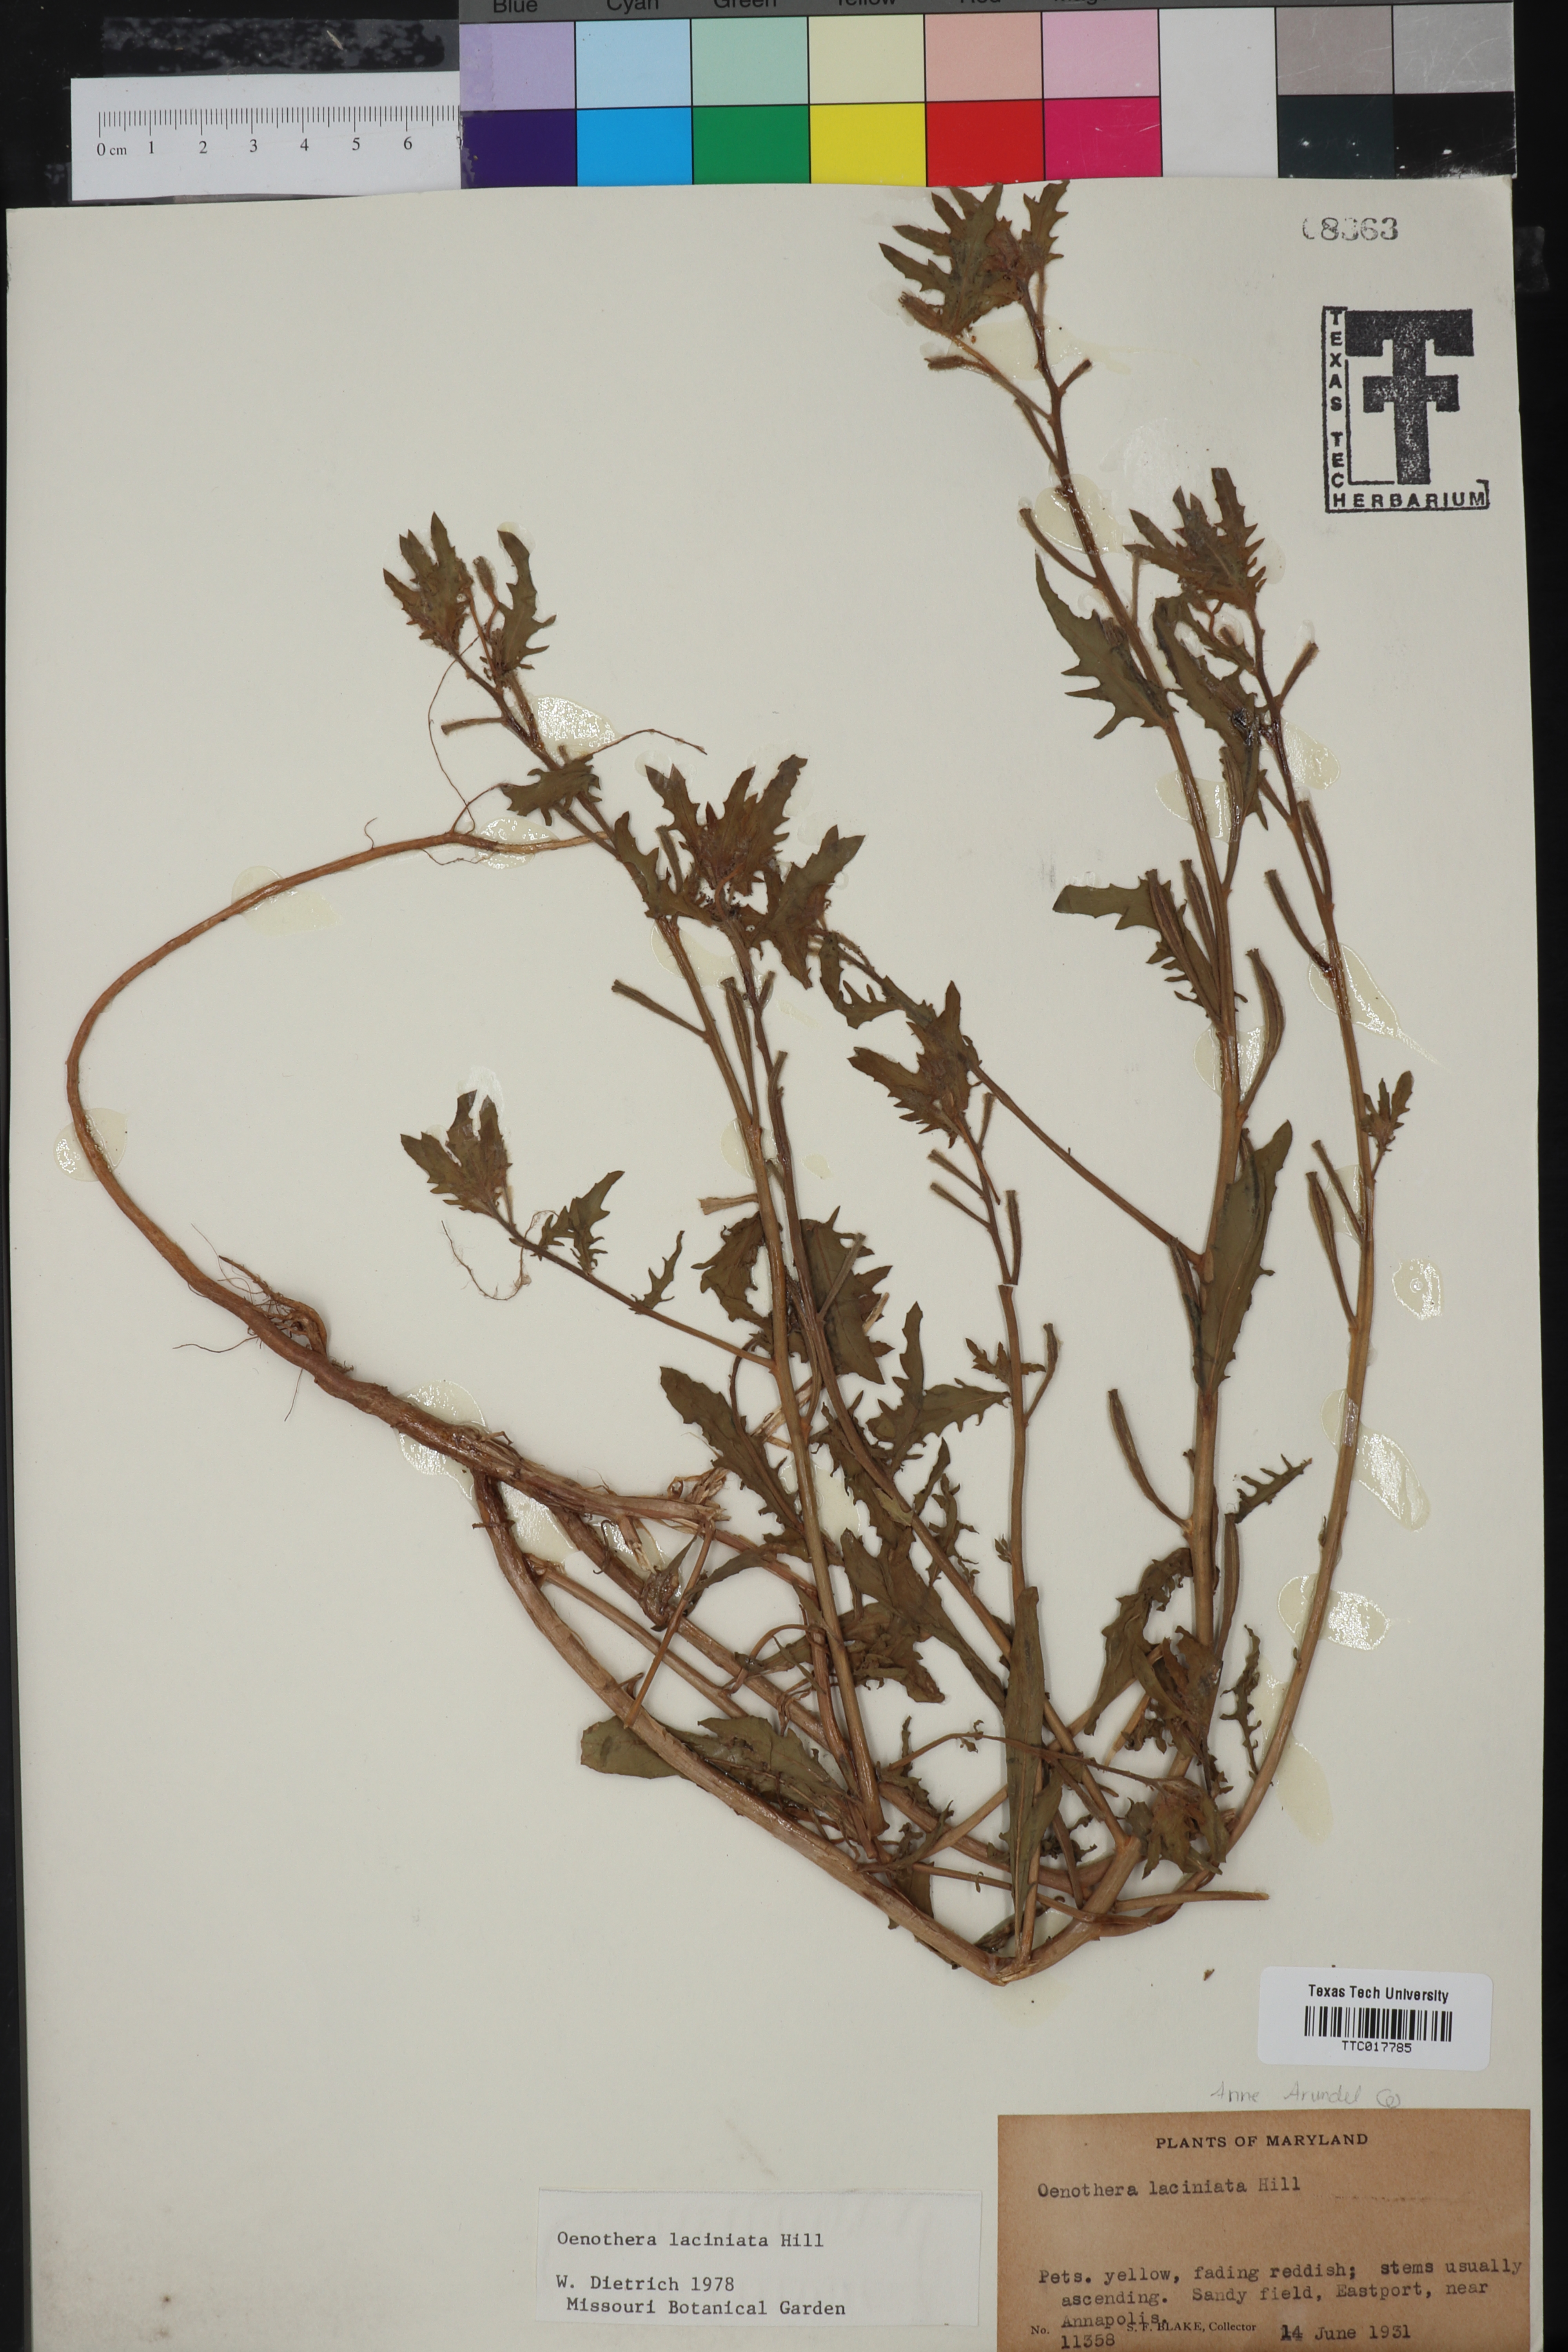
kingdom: Plantae
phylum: Tracheophyta
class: Magnoliopsida
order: Myrtales
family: Onagraceae
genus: Oenothera
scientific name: Oenothera laciniata
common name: Cut-leaved evening-primrose
